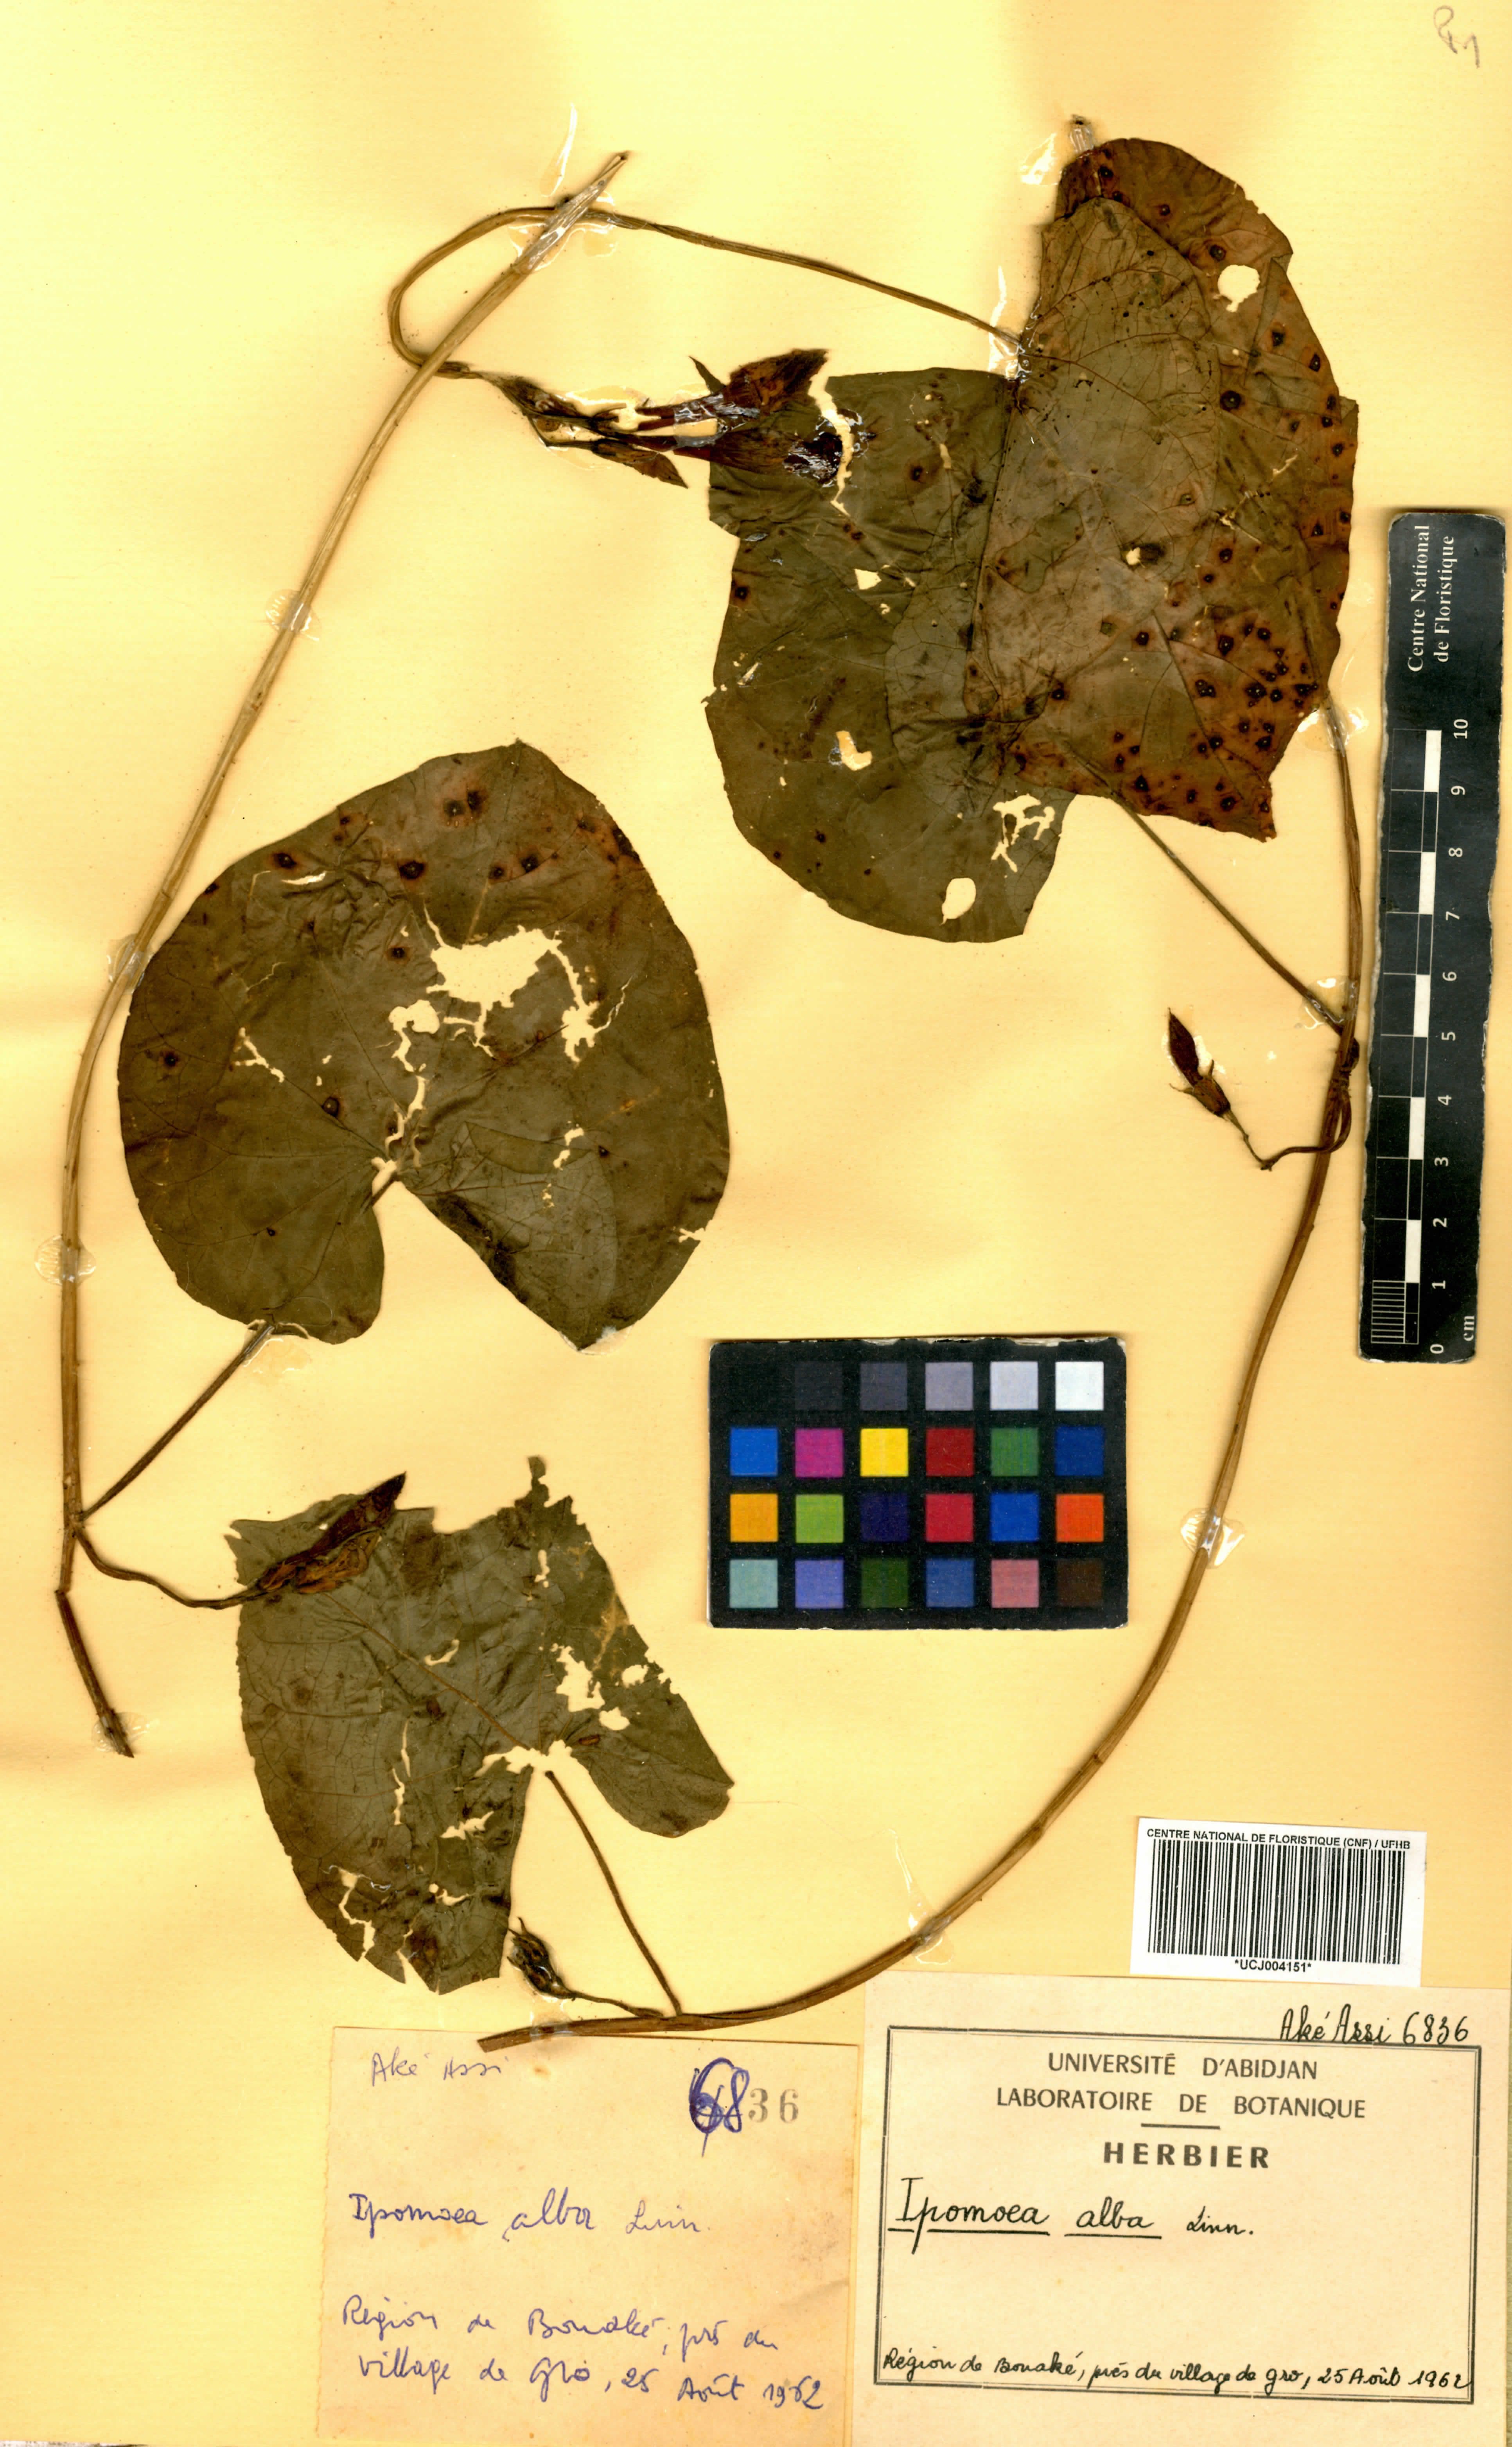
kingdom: Plantae
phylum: Tracheophyta
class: Magnoliopsida
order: Solanales
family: Convolvulaceae
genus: Ipomoea
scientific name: Ipomoea alba
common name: Moonflower
